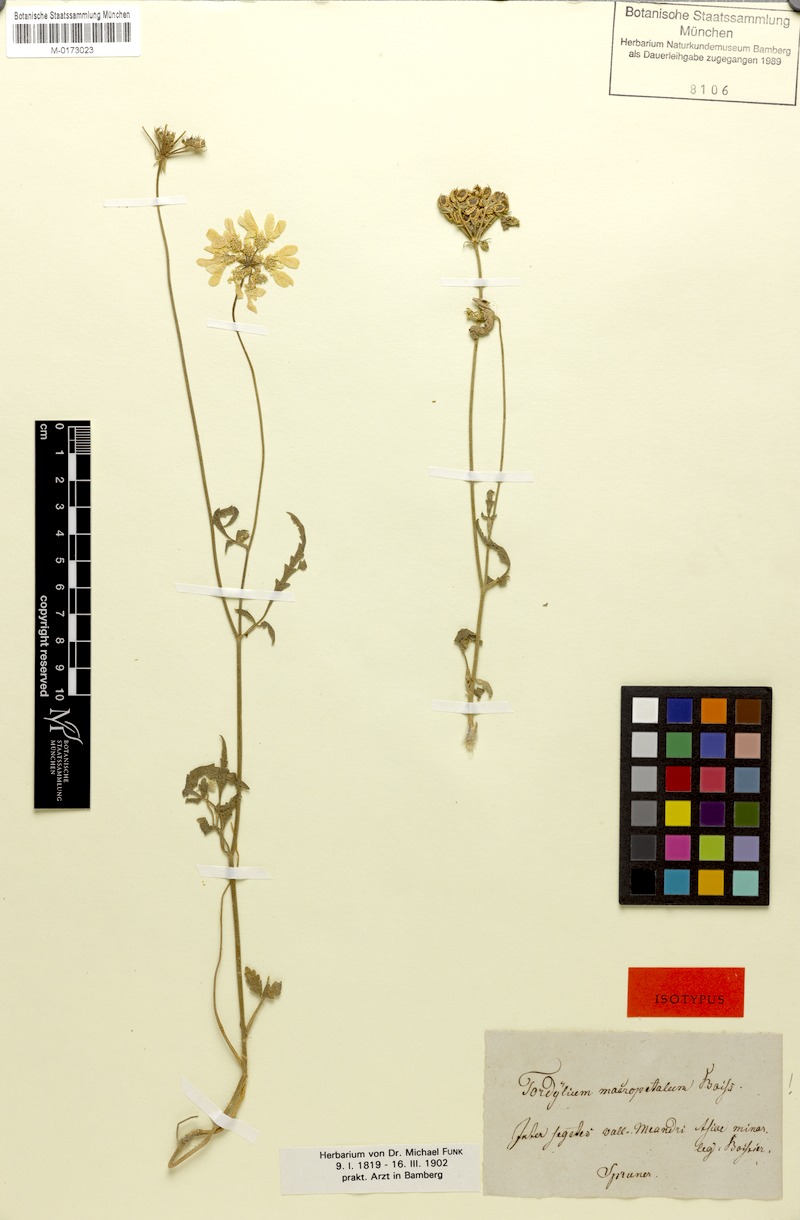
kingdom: Plantae
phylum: Tracheophyta
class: Magnoliopsida
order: Apiales
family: Apiaceae
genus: Tordylium
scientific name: Tordylium macropetalum
